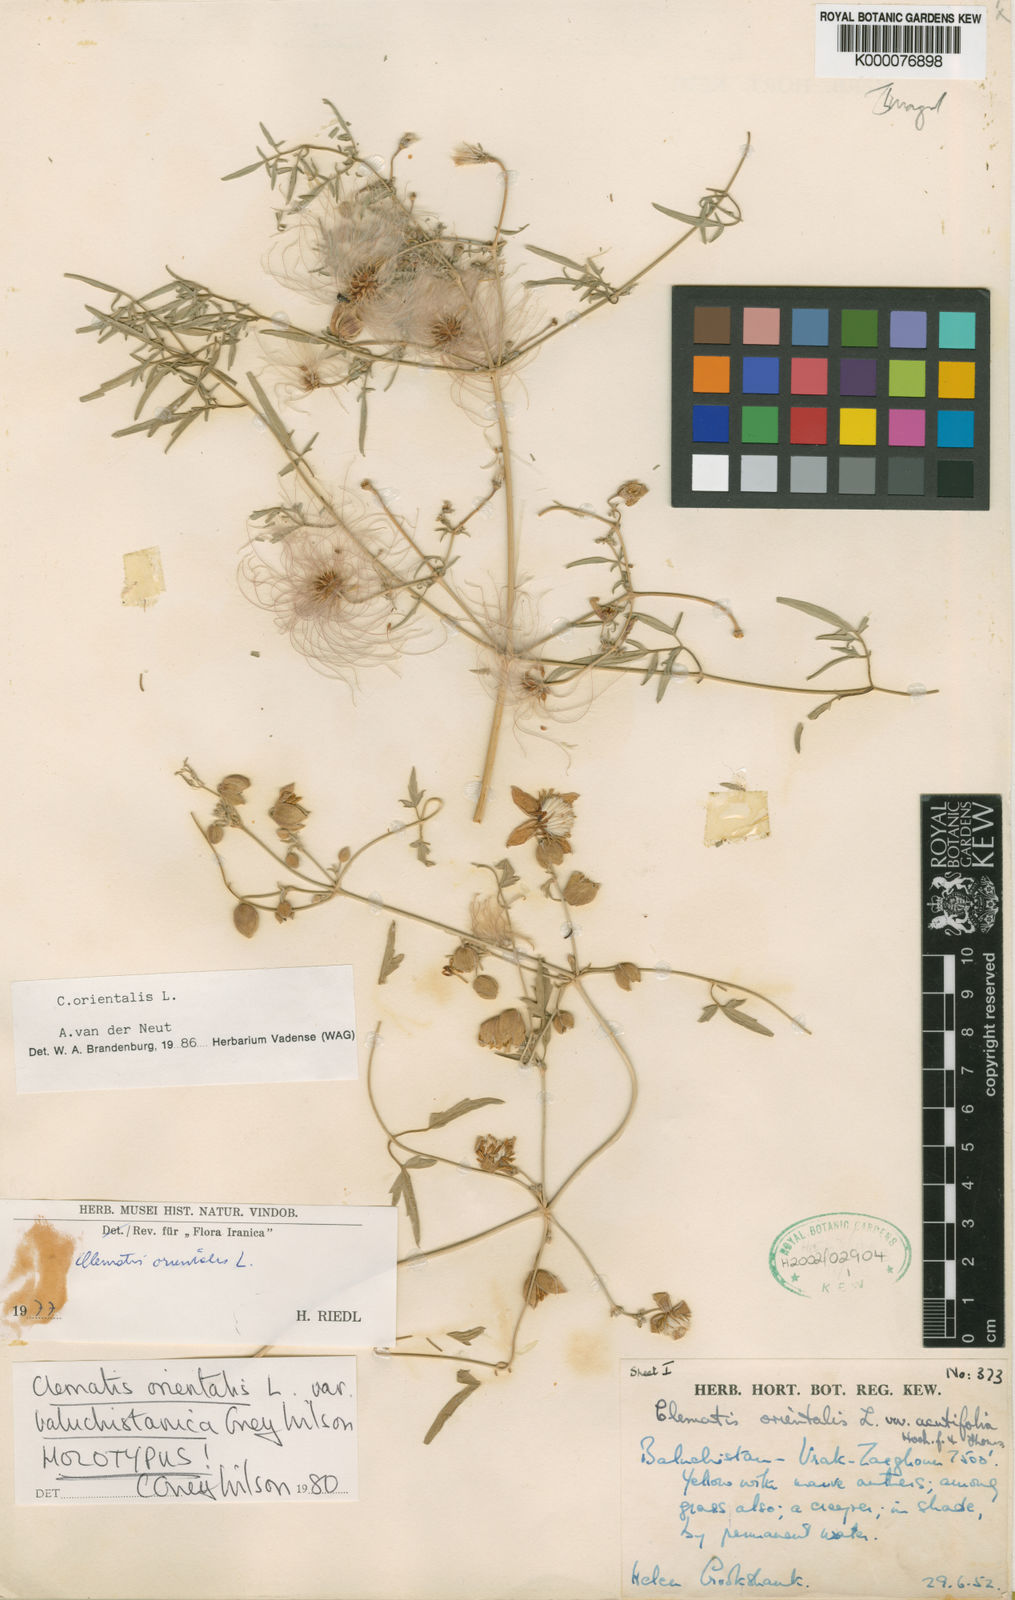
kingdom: Plantae
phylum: Tracheophyta
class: Magnoliopsida
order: Ranunculales
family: Ranunculaceae
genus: Clematis
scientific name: Clematis orientalis
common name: Oriental virgin's-bower
